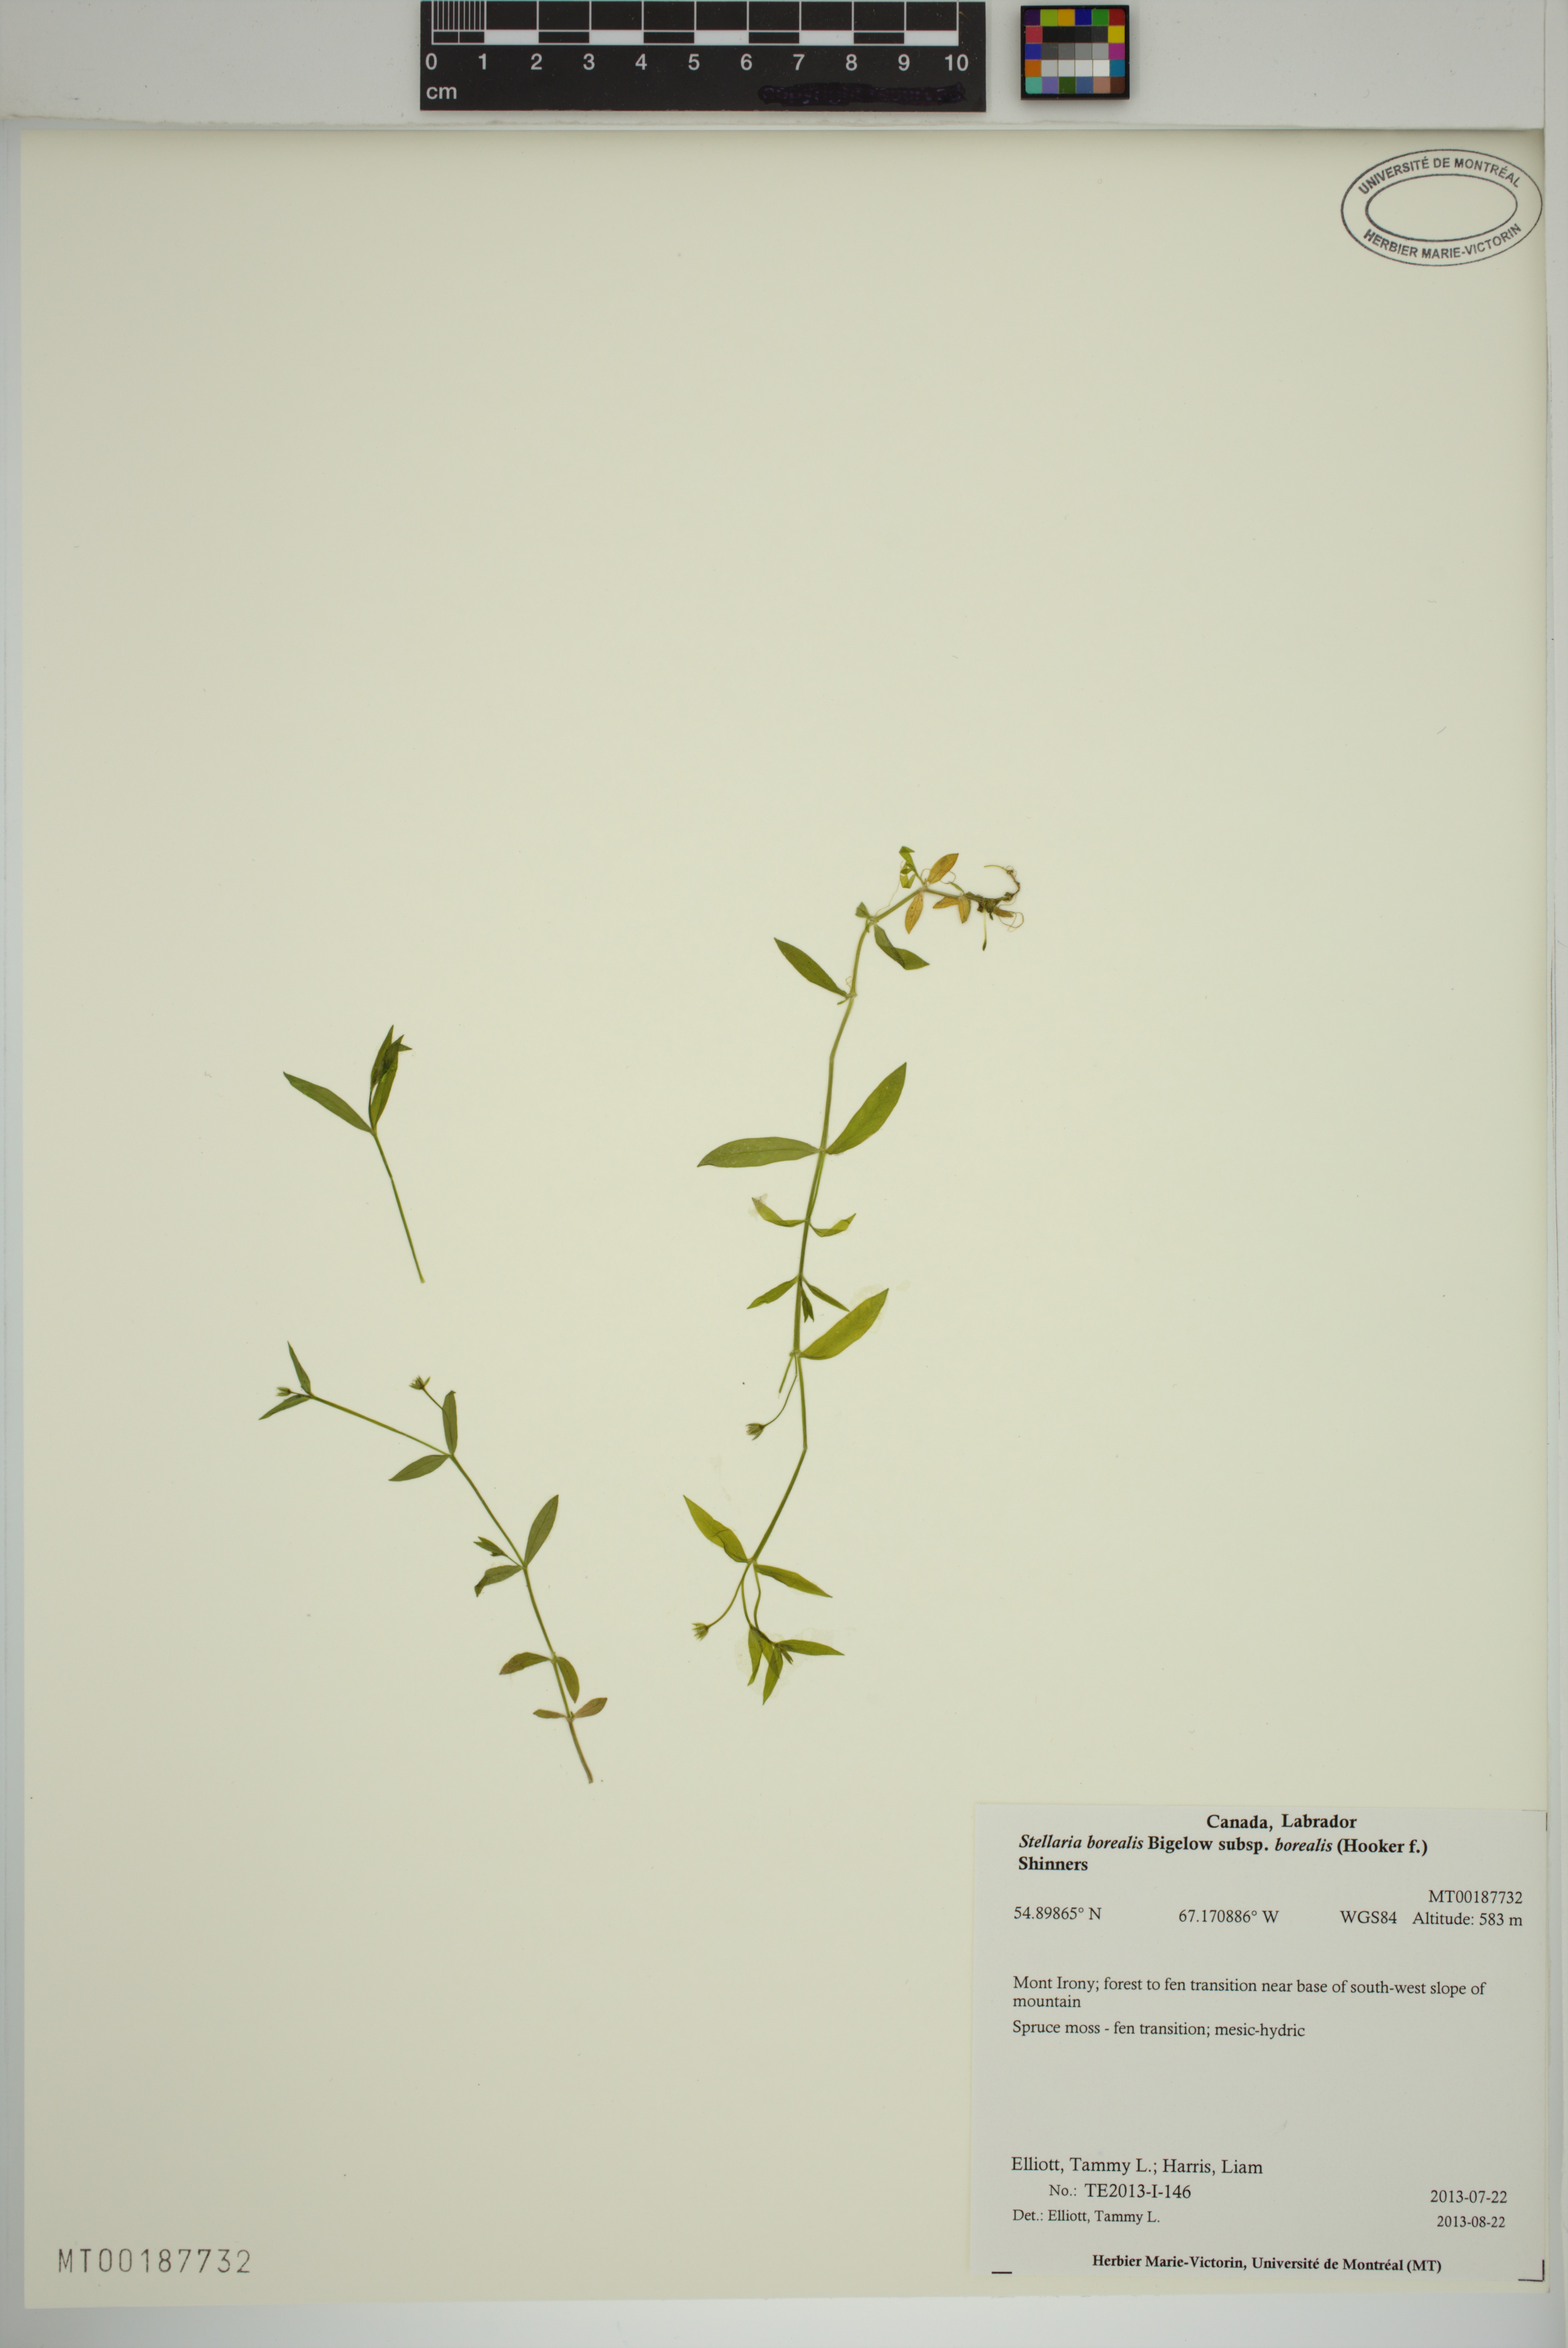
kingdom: Plantae
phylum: Tracheophyta
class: Magnoliopsida
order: Caryophyllales
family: Caryophyllaceae
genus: Stellaria
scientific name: Stellaria borealis
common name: Boreal starwort
